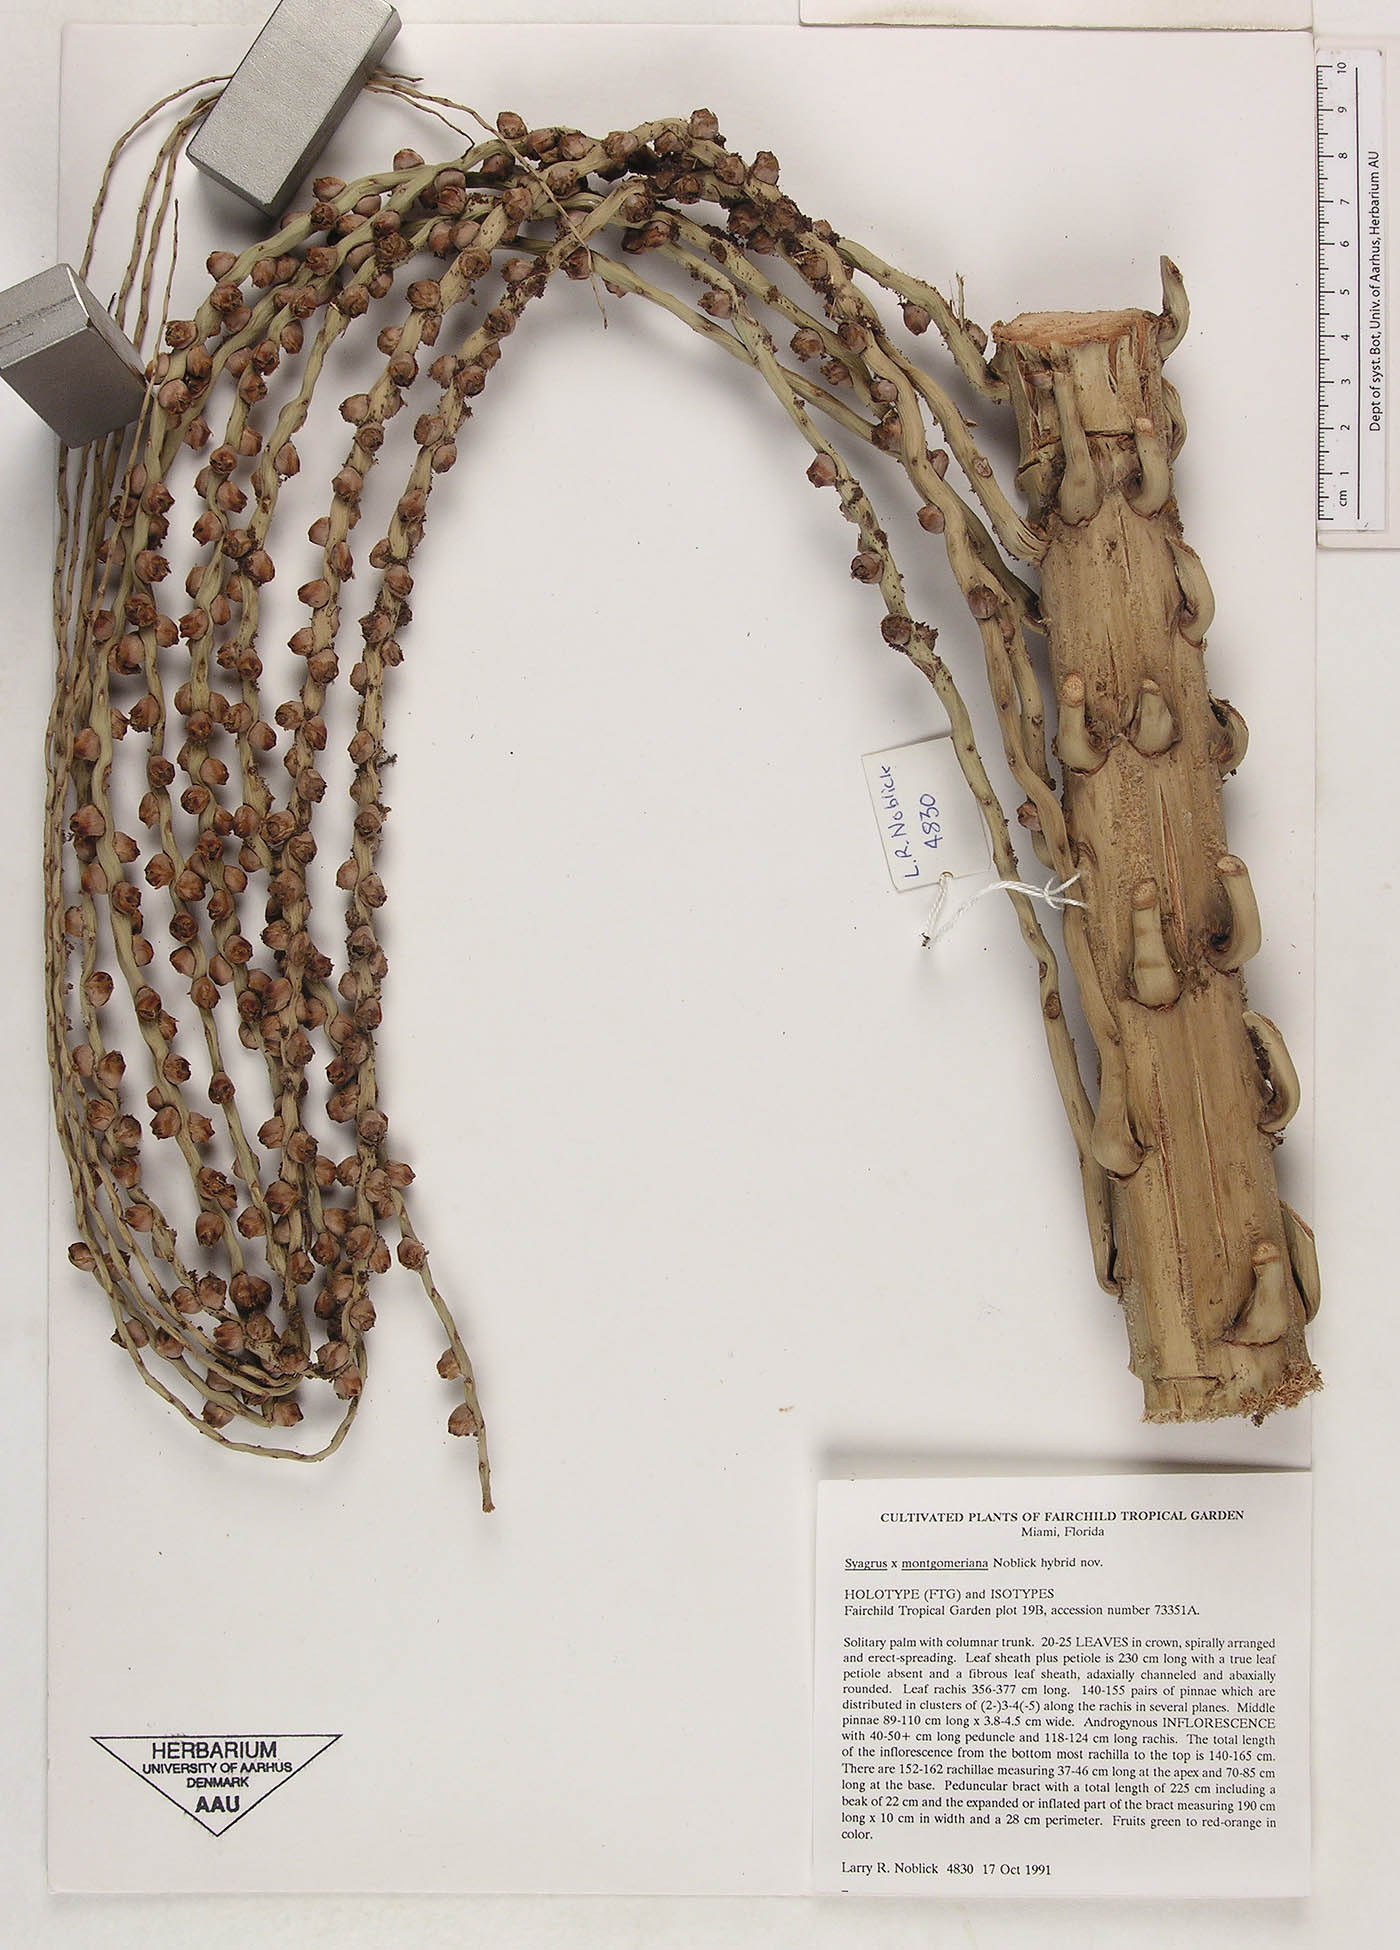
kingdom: Plantae
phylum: Tracheophyta
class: Liliopsida
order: Arecales
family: Arecaceae
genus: Syagrus
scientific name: Syagrus
